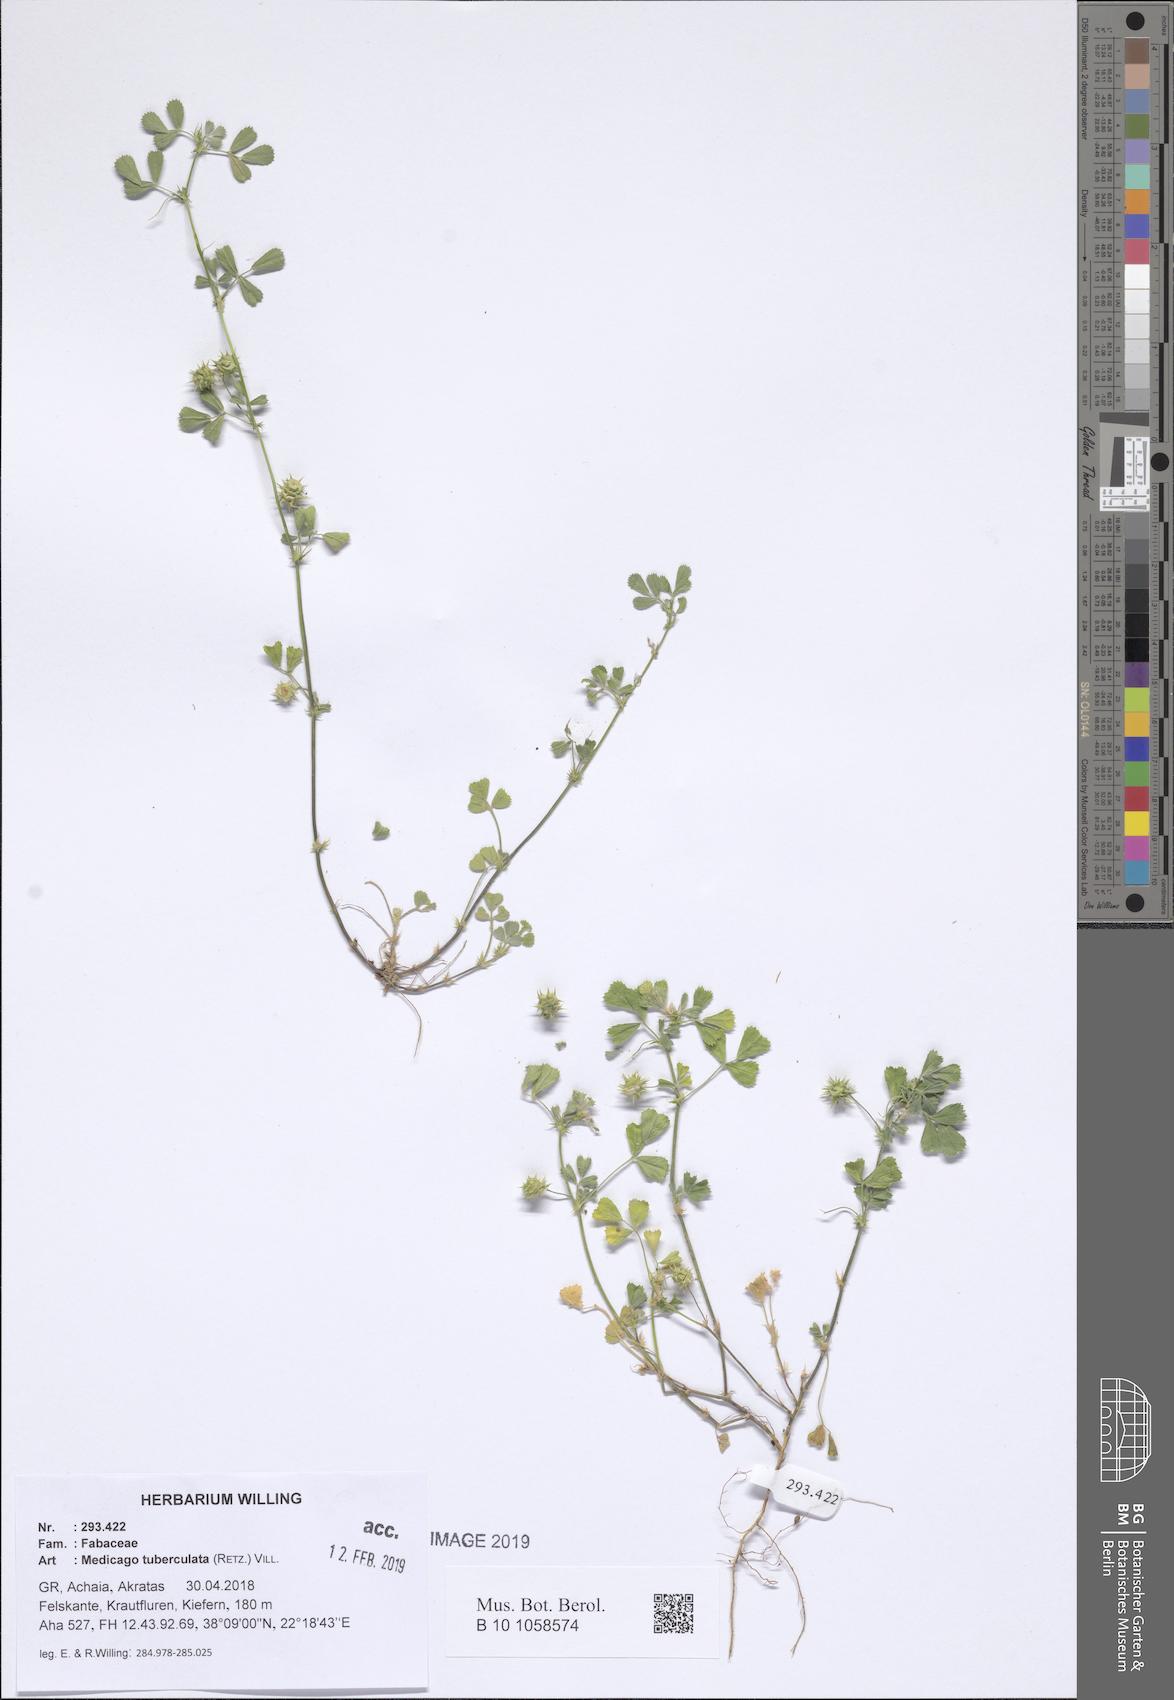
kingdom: Plantae
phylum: Tracheophyta
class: Magnoliopsida
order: Fabales
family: Fabaceae
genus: Medicago
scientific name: Medicago turbinata
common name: Southern medick
